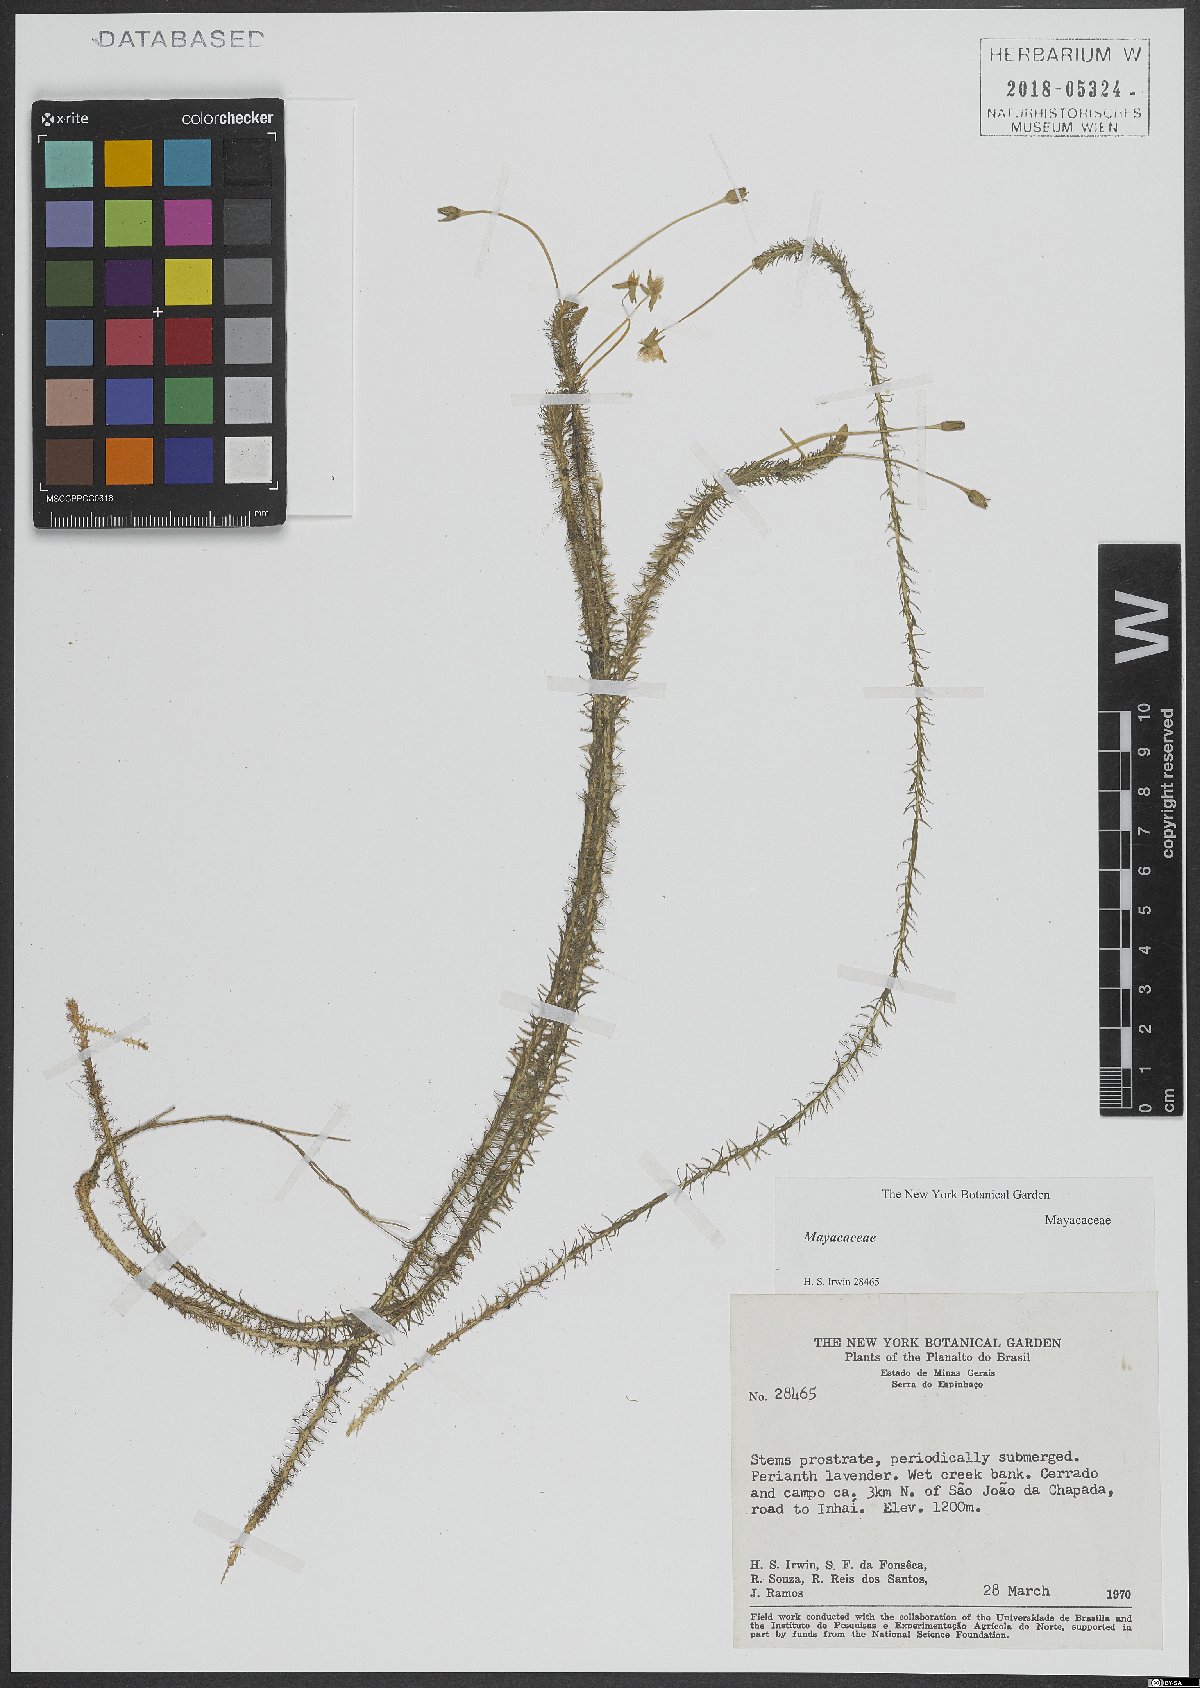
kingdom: Plantae
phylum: Tracheophyta
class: Liliopsida
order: Poales
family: Mayacaceae
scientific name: Mayacaceae
